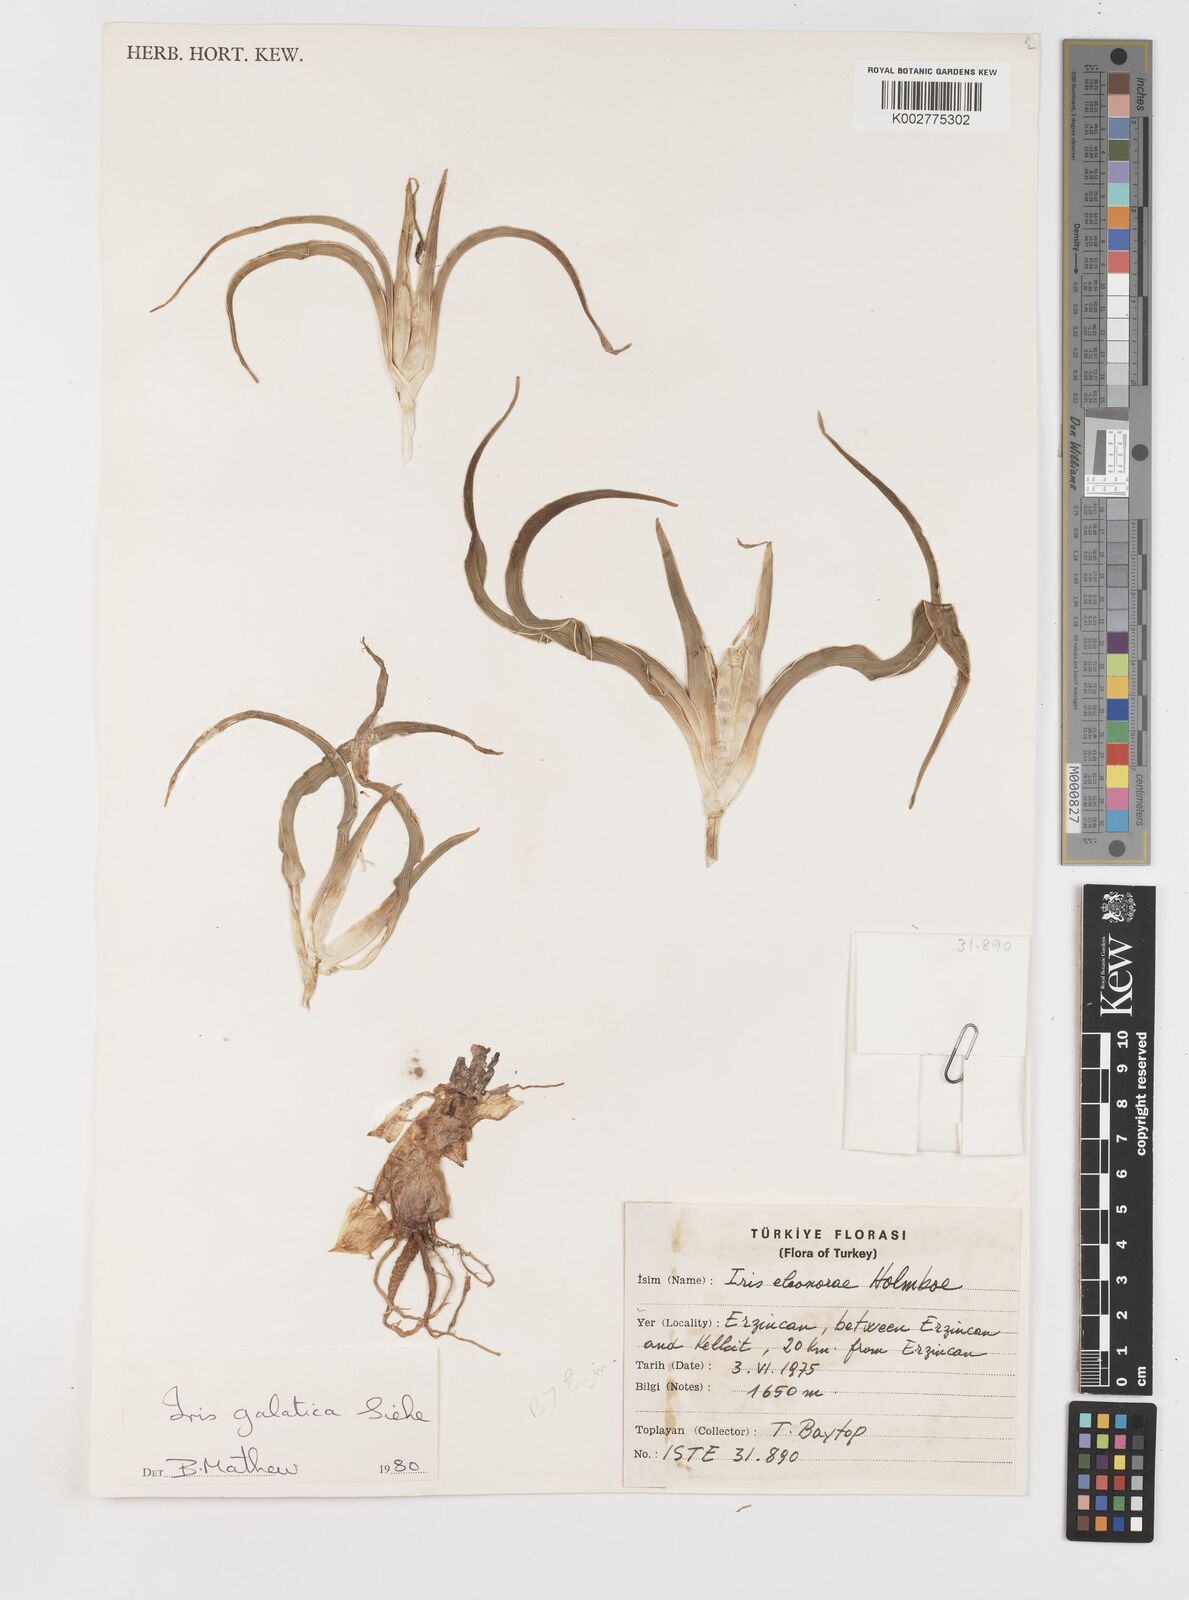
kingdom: Plantae
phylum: Tracheophyta
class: Liliopsida
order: Asparagales
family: Iridaceae
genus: Iris
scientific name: Iris
